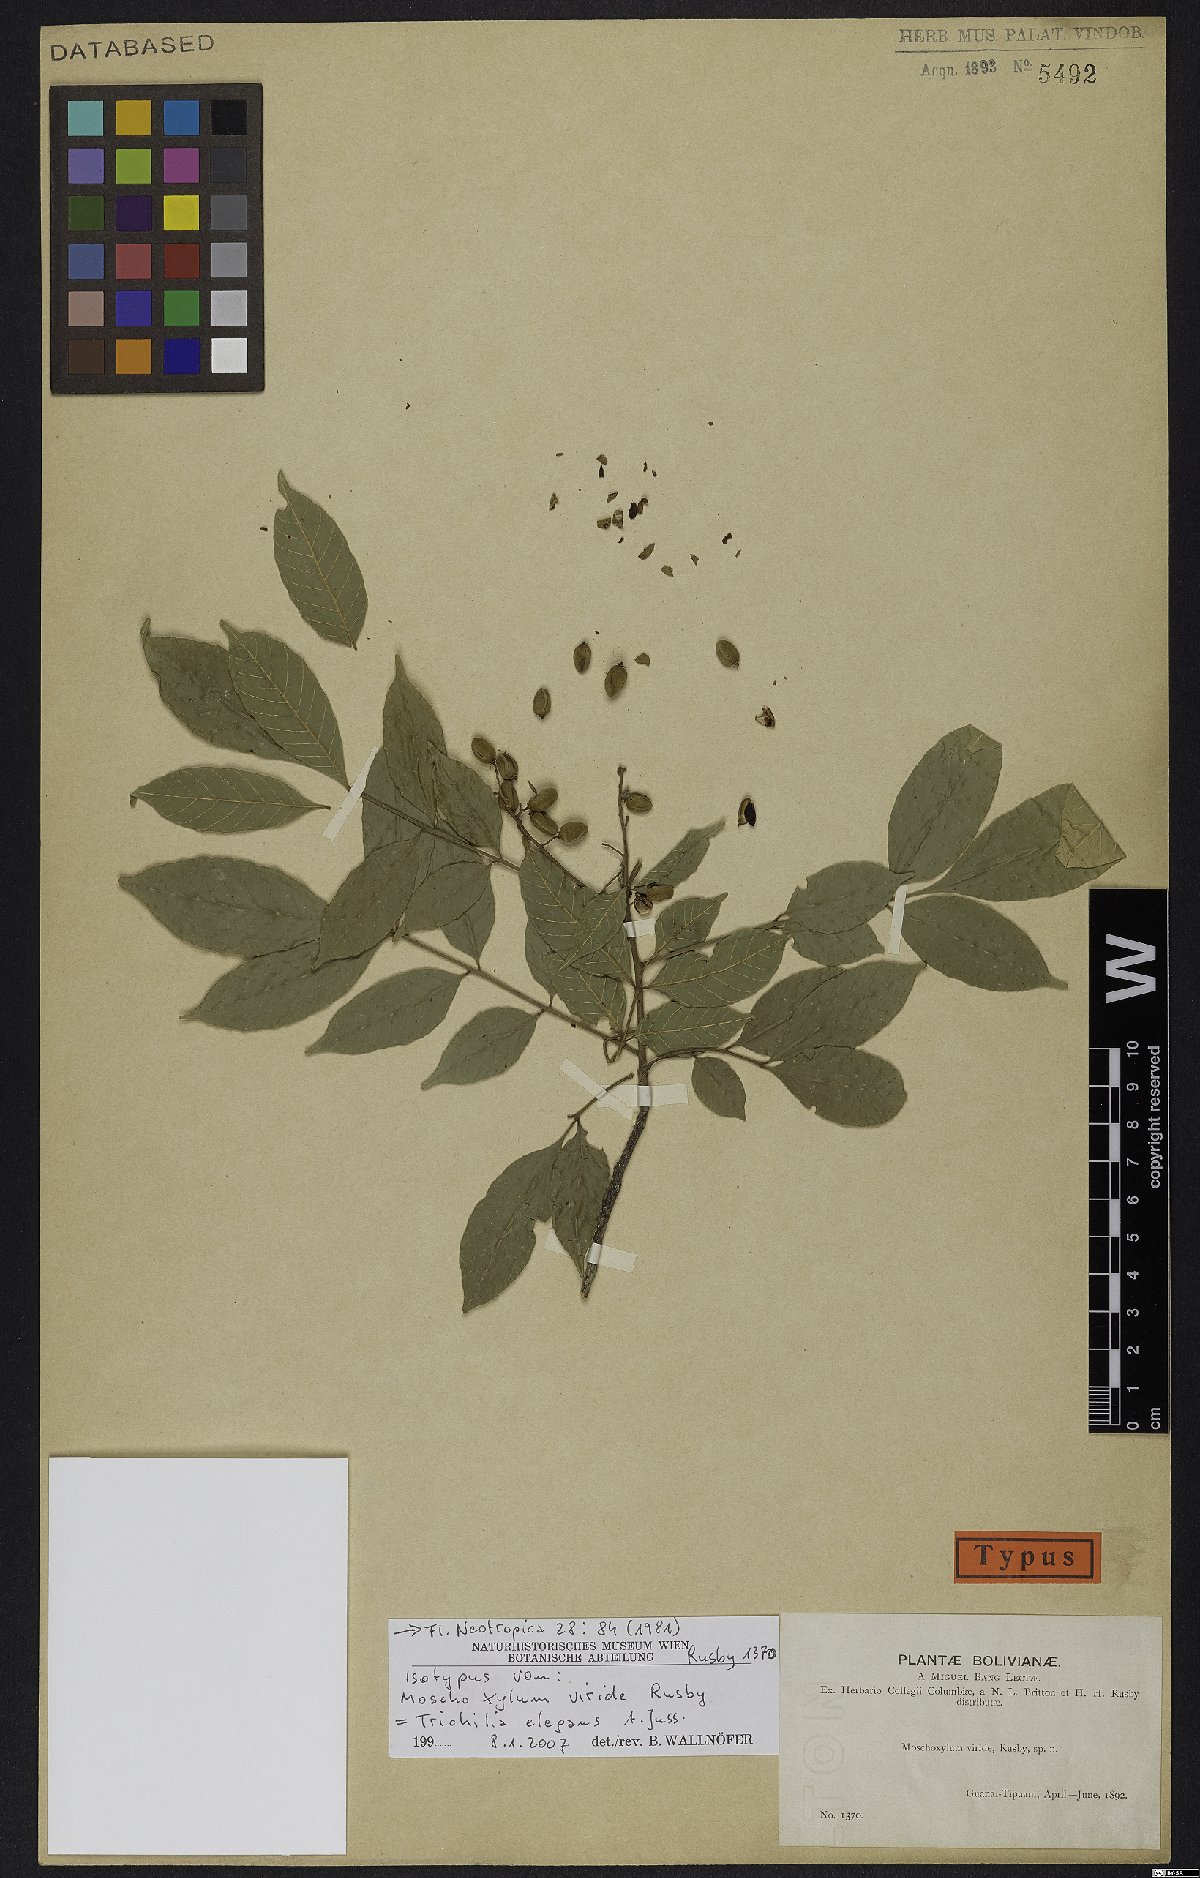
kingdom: Plantae
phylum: Tracheophyta
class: Magnoliopsida
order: Sapindales
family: Meliaceae
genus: Trichilia
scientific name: Trichilia elegans
